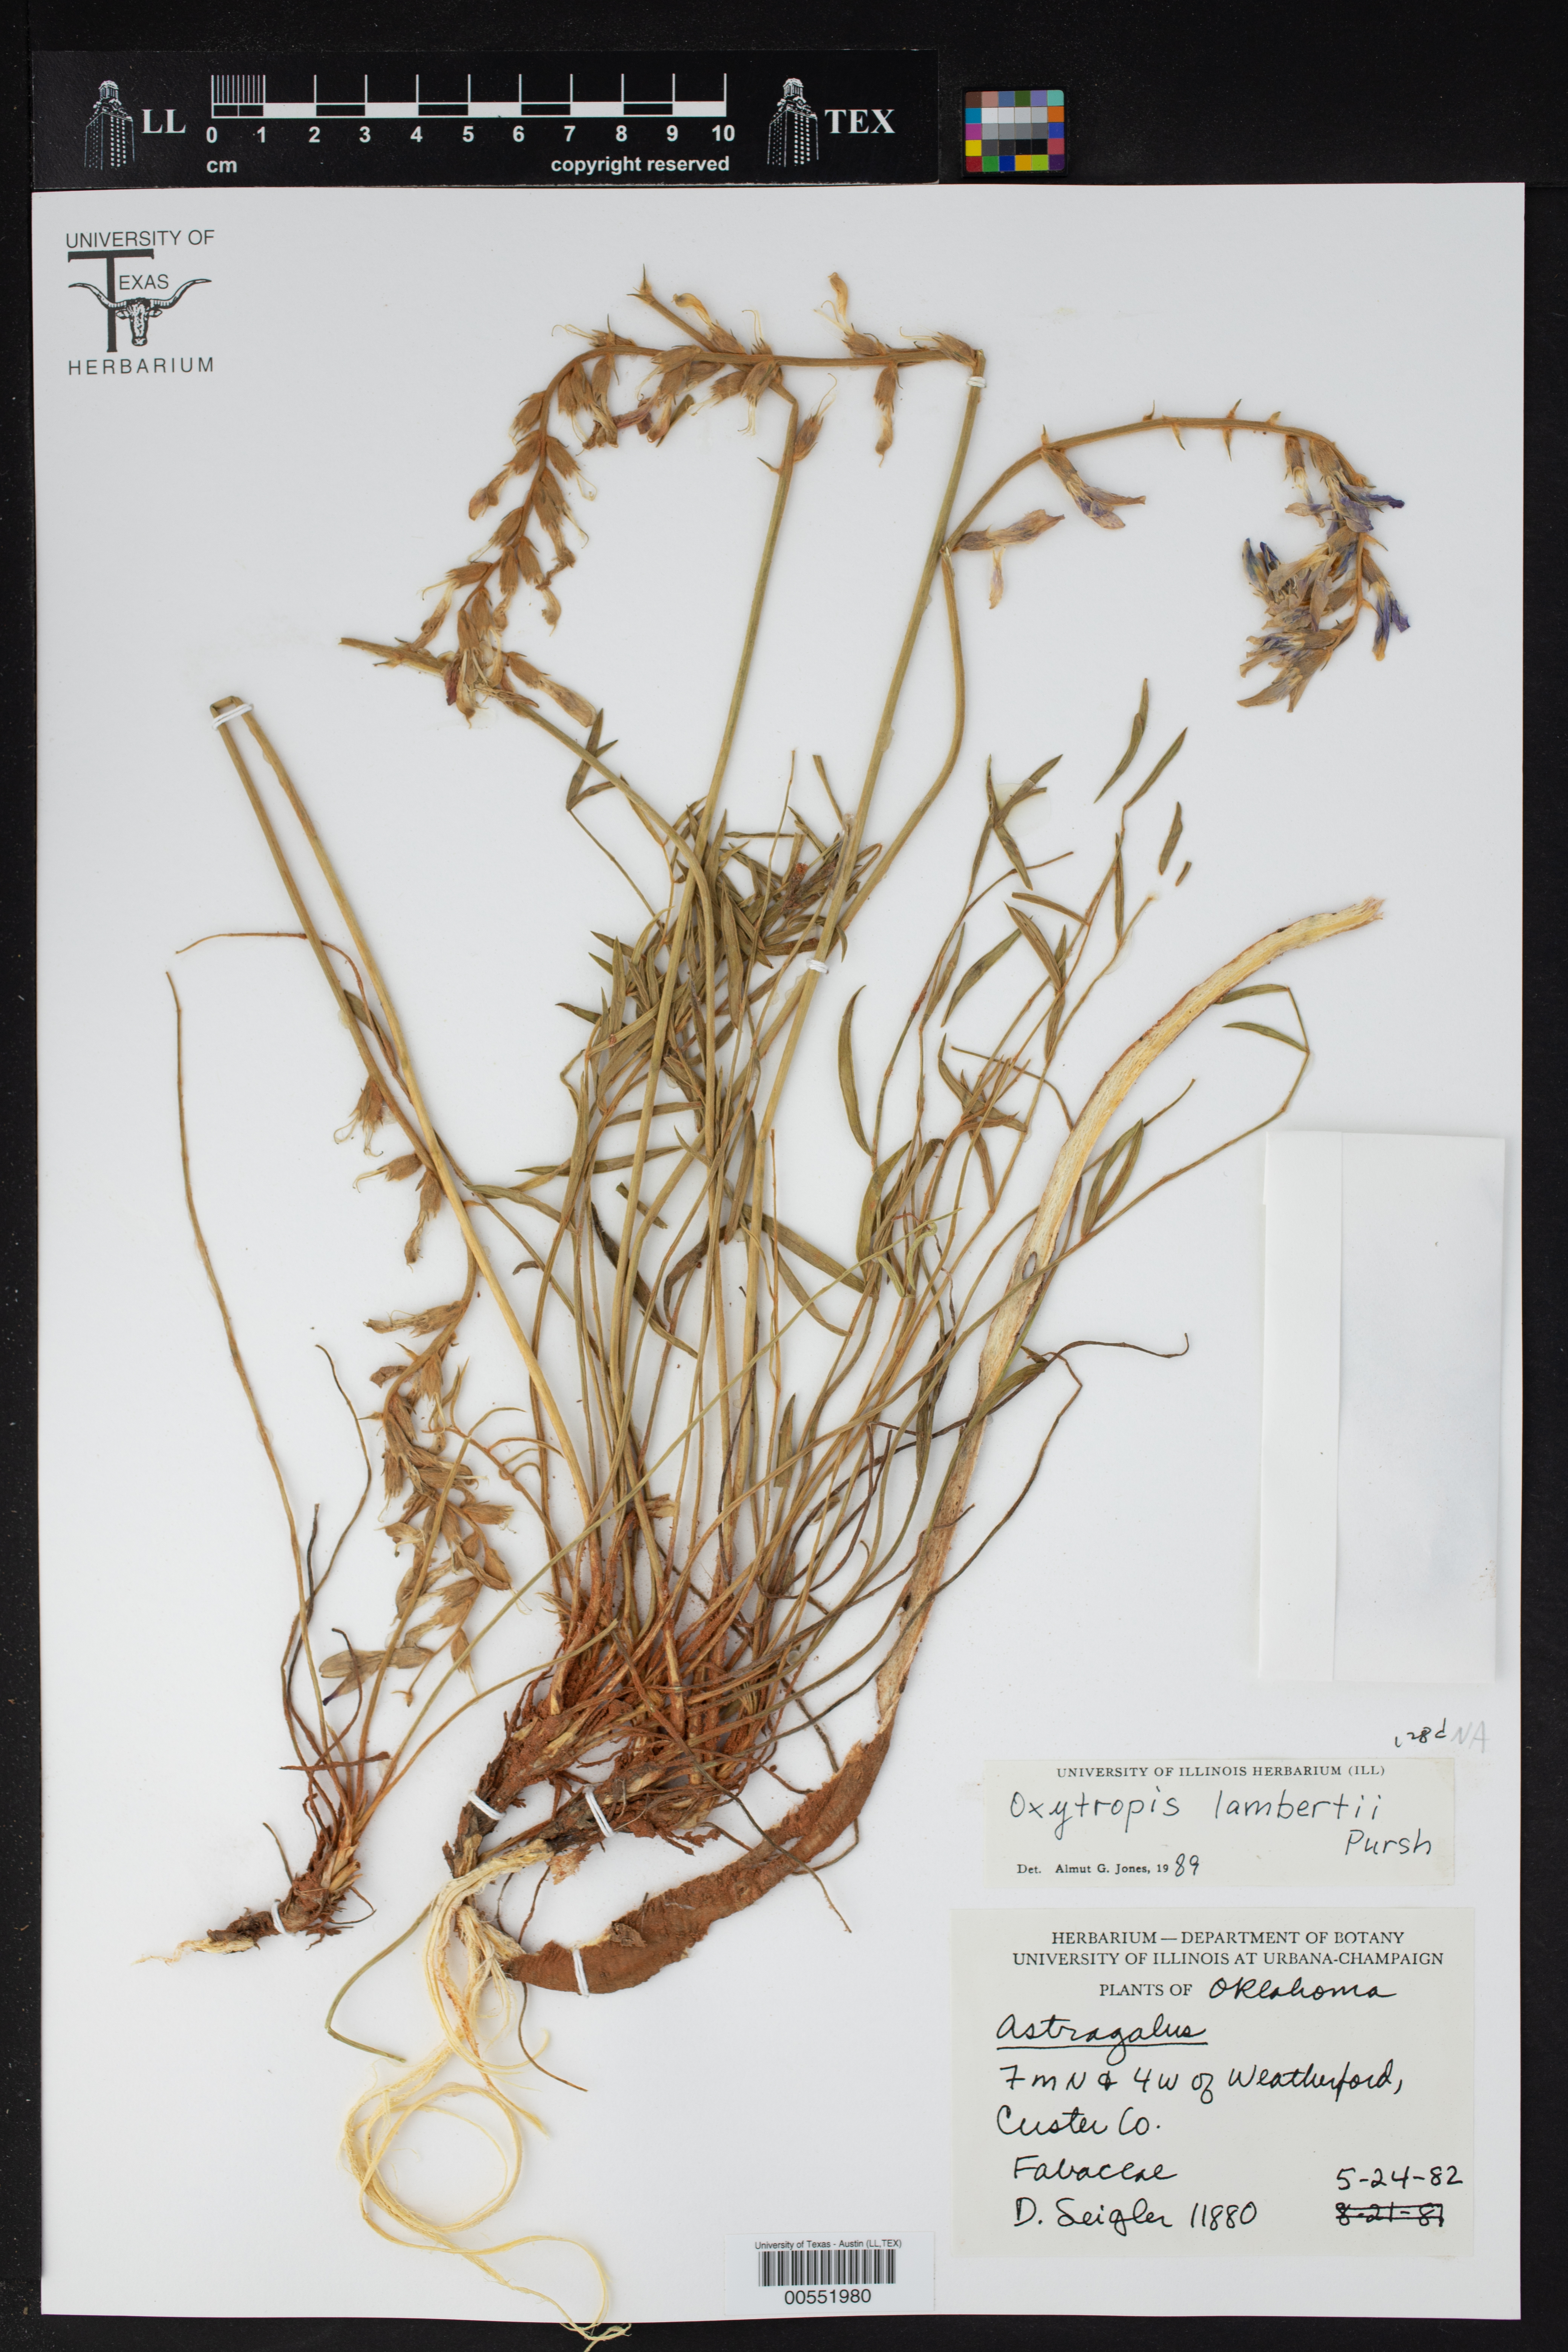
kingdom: Plantae
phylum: Tracheophyta
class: Magnoliopsida
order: Fabales
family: Fabaceae
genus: Oxytropis
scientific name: Oxytropis lambertii
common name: Purple locoweed
